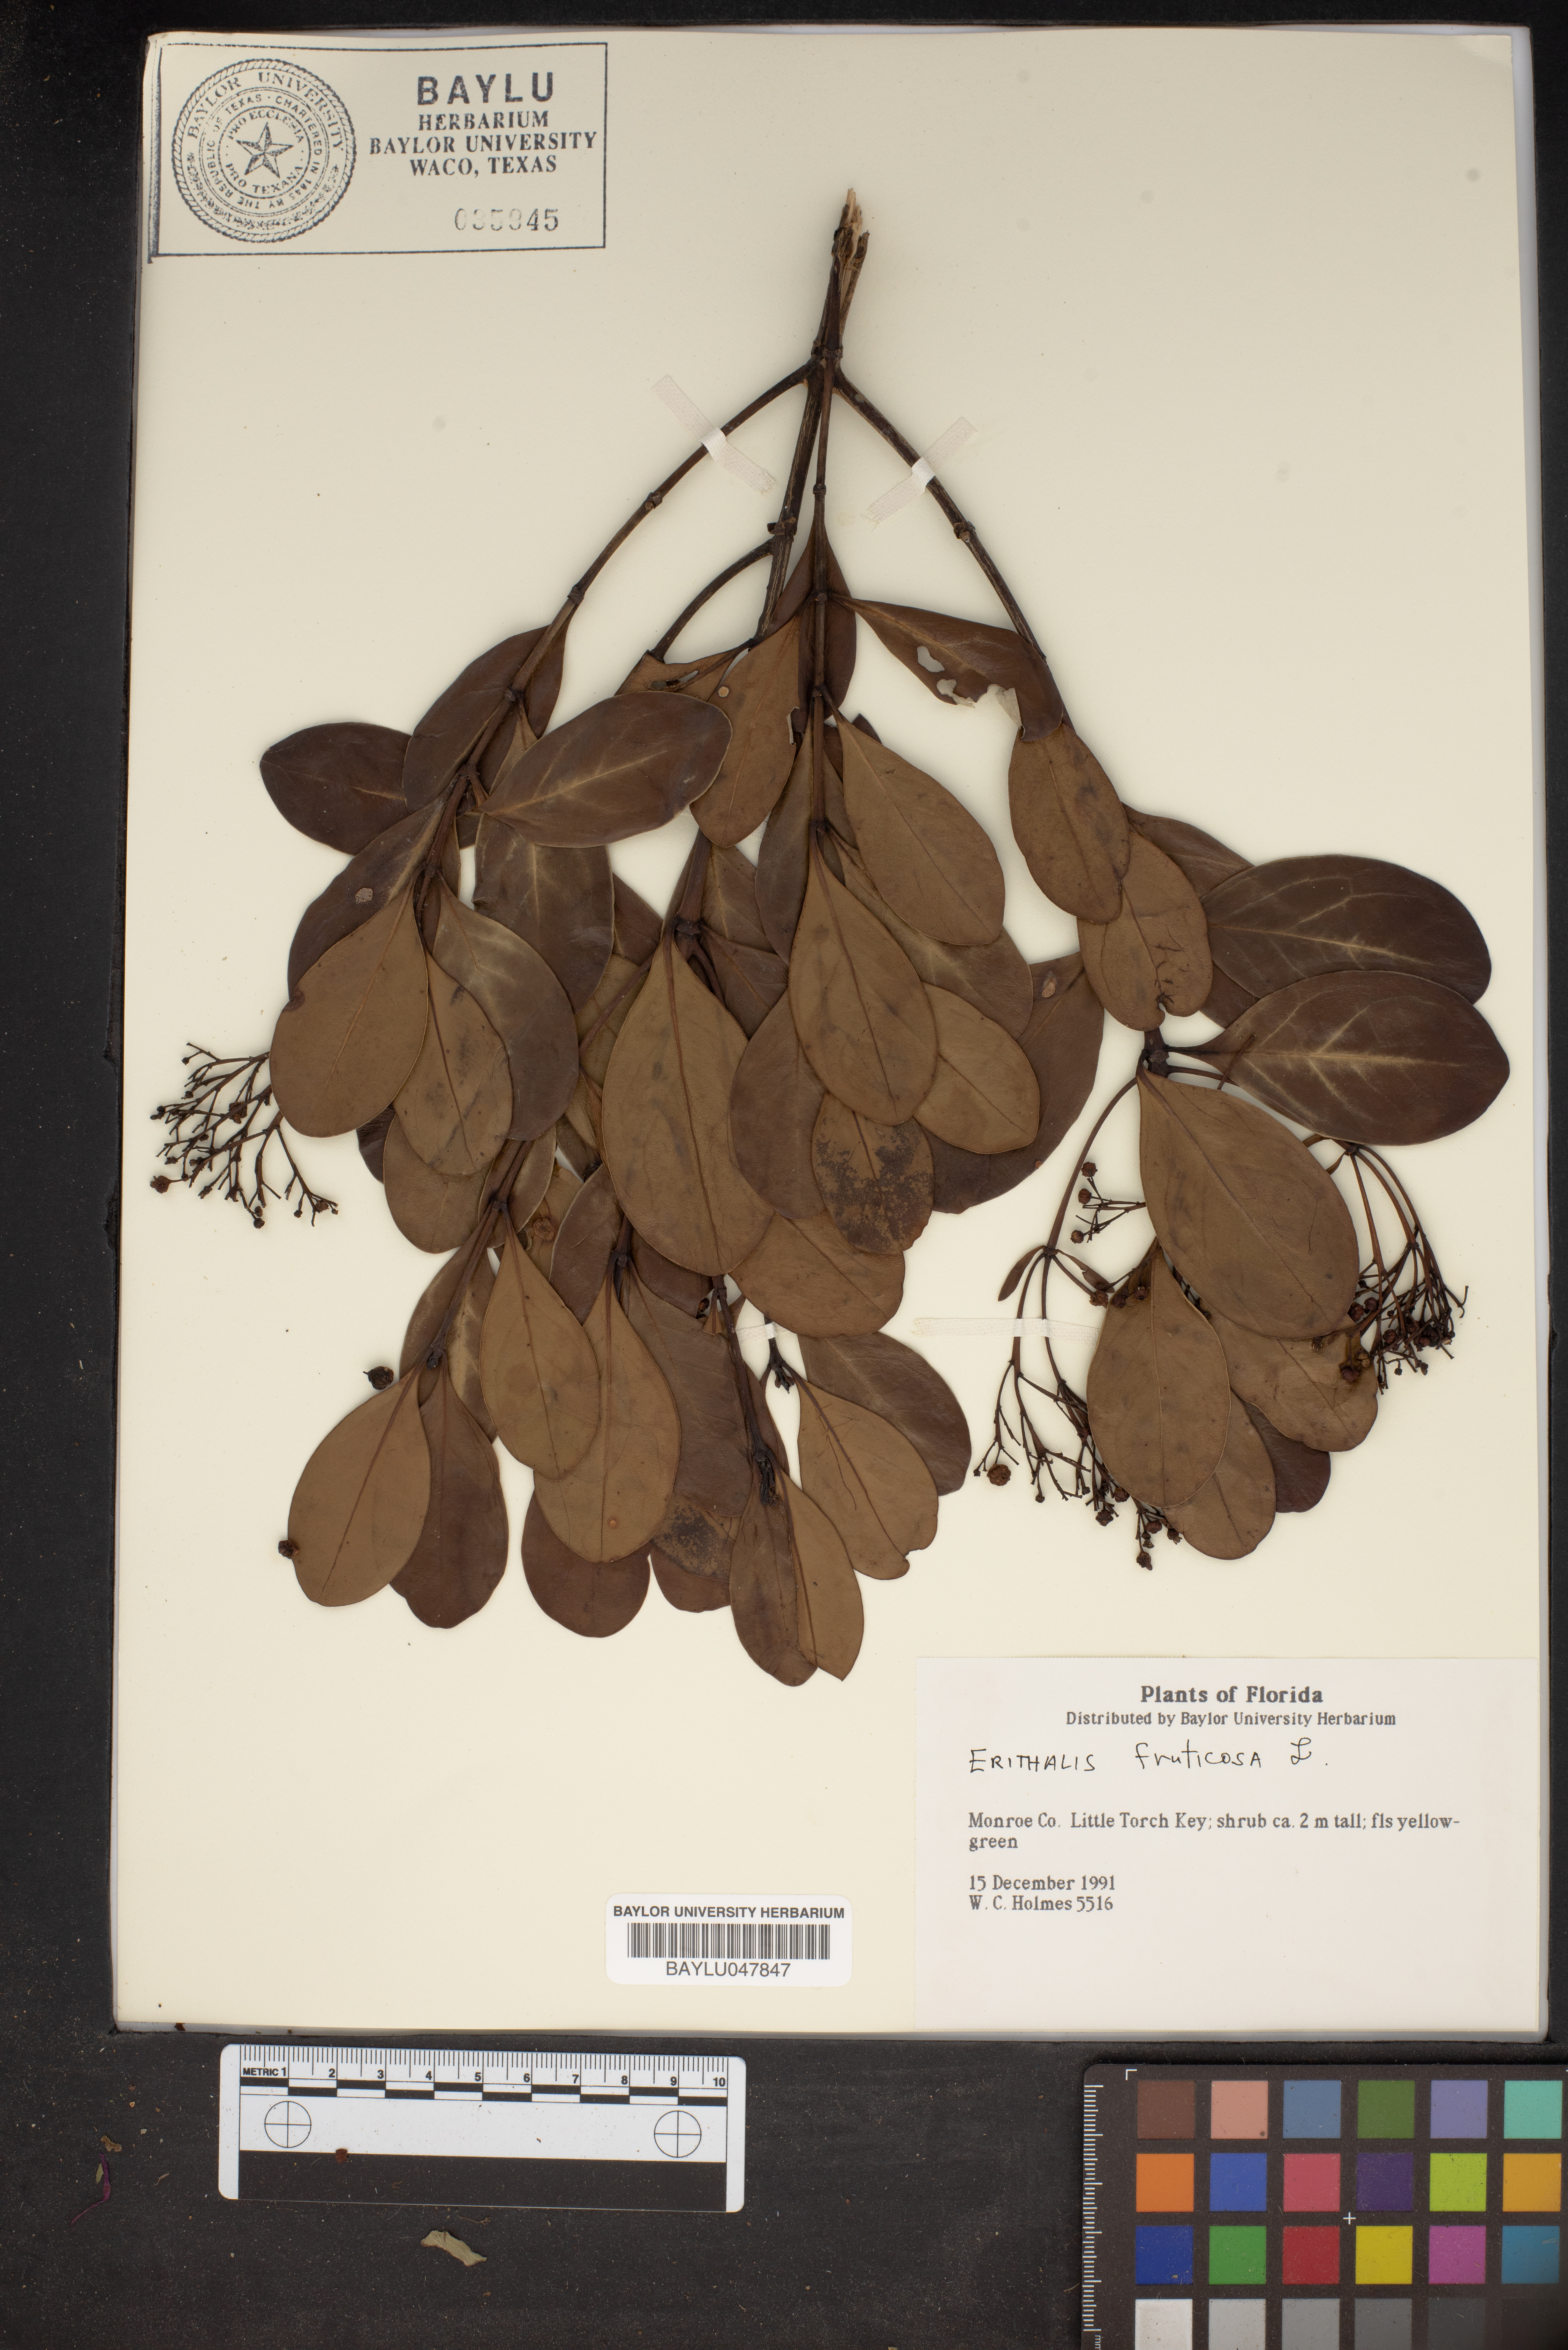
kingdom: Plantae
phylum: Tracheophyta
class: Magnoliopsida
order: Gentianales
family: Rubiaceae
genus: Erithalis
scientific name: Erithalis fruticosa
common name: Candlewood
